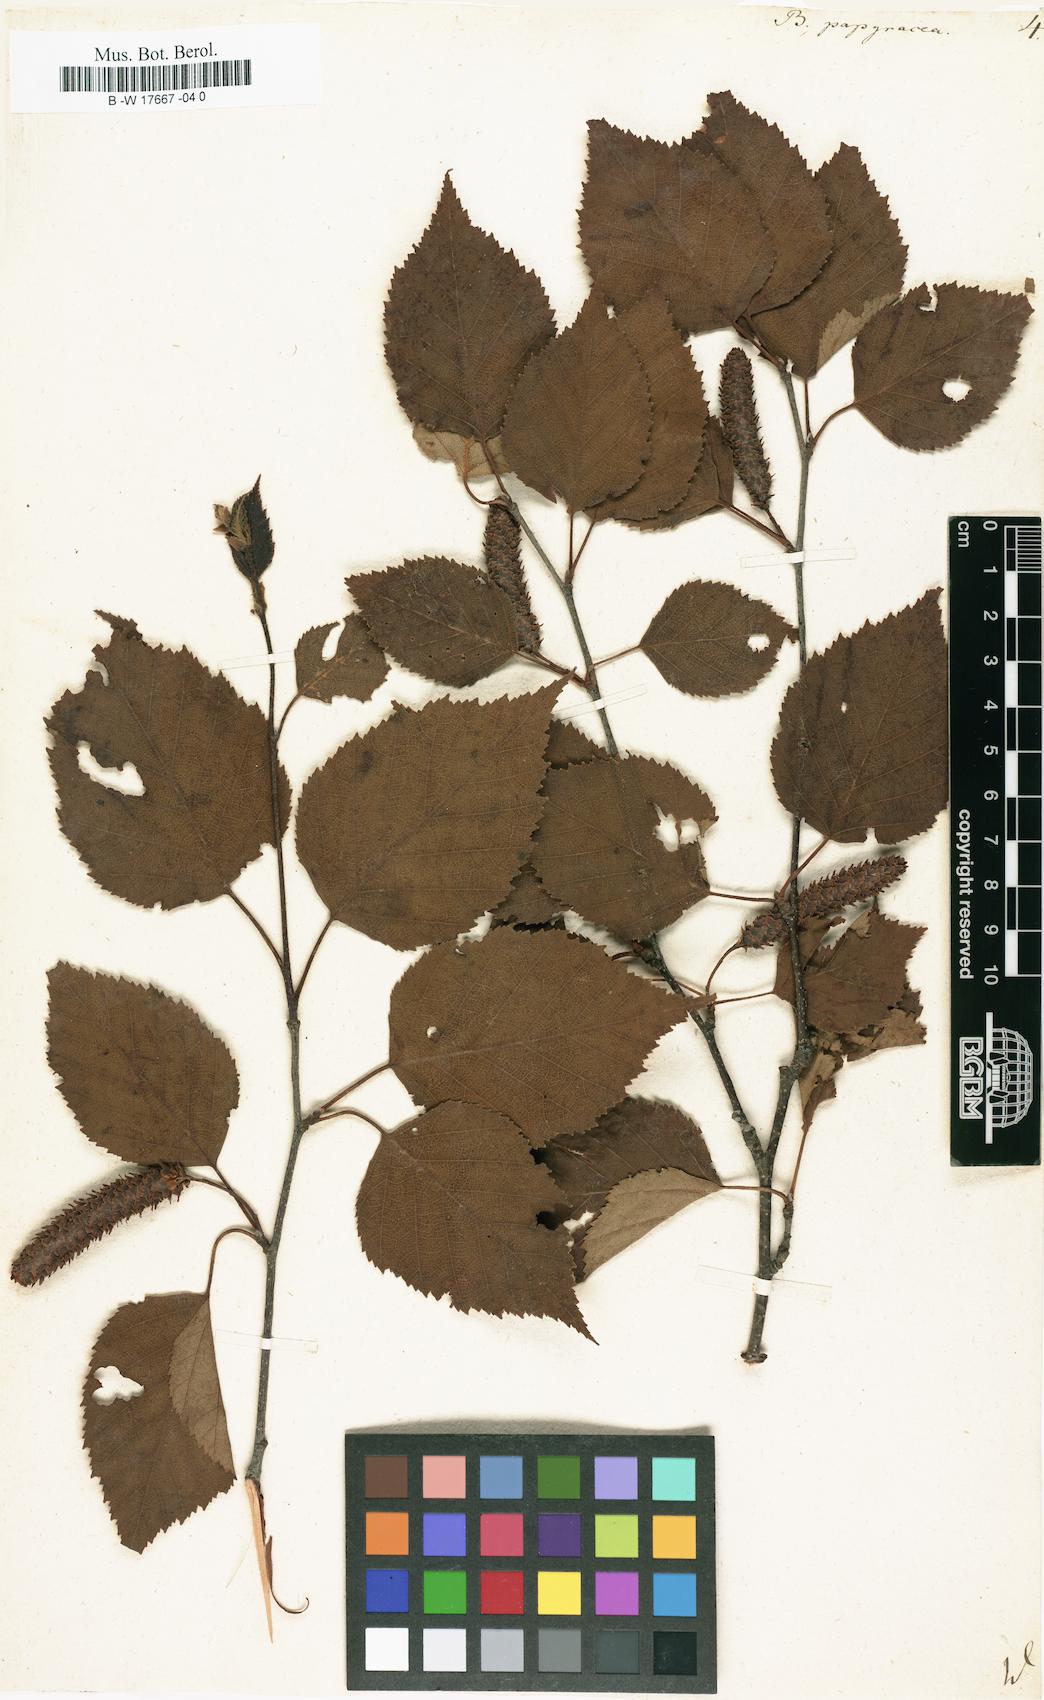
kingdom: Plantae
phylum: Tracheophyta
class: Magnoliopsida
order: Fagales
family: Betulaceae
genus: Betula
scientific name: Betula papyrifera
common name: Paper birch
